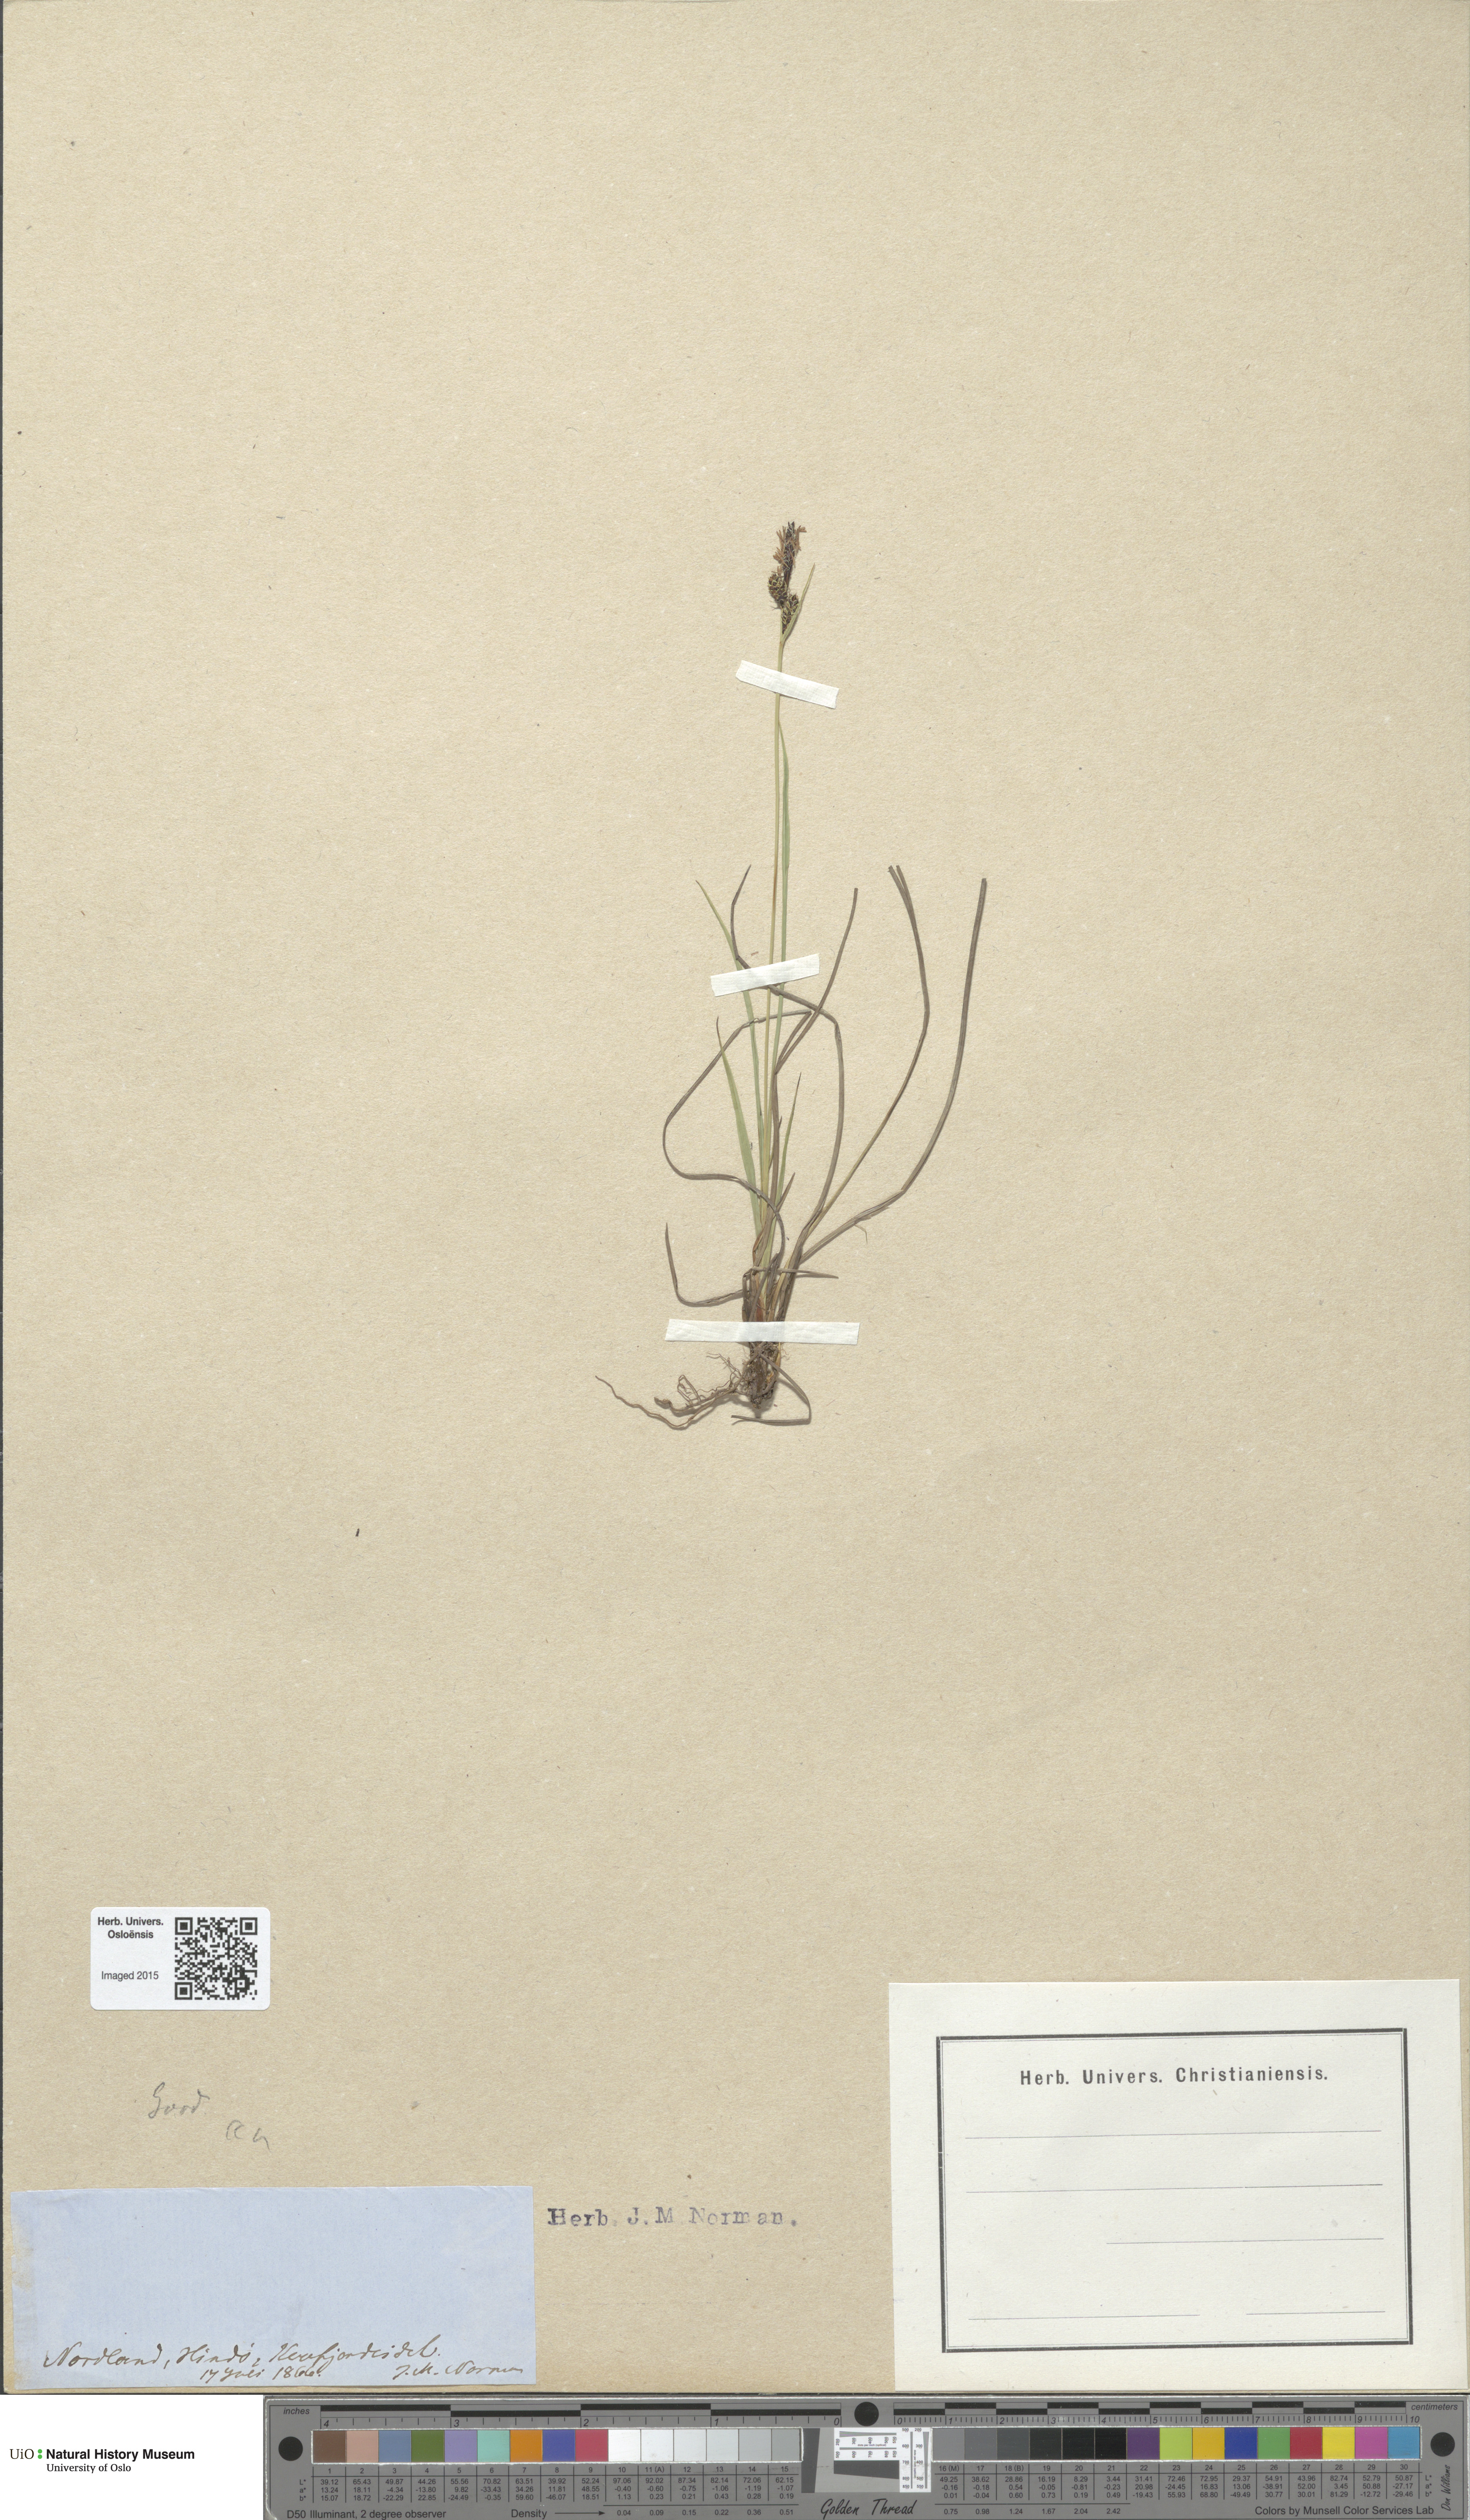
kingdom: Plantae
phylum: Tracheophyta
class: Liliopsida
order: Poales
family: Cyperaceae
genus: Carex
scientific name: Carex nigra
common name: Common sedge
